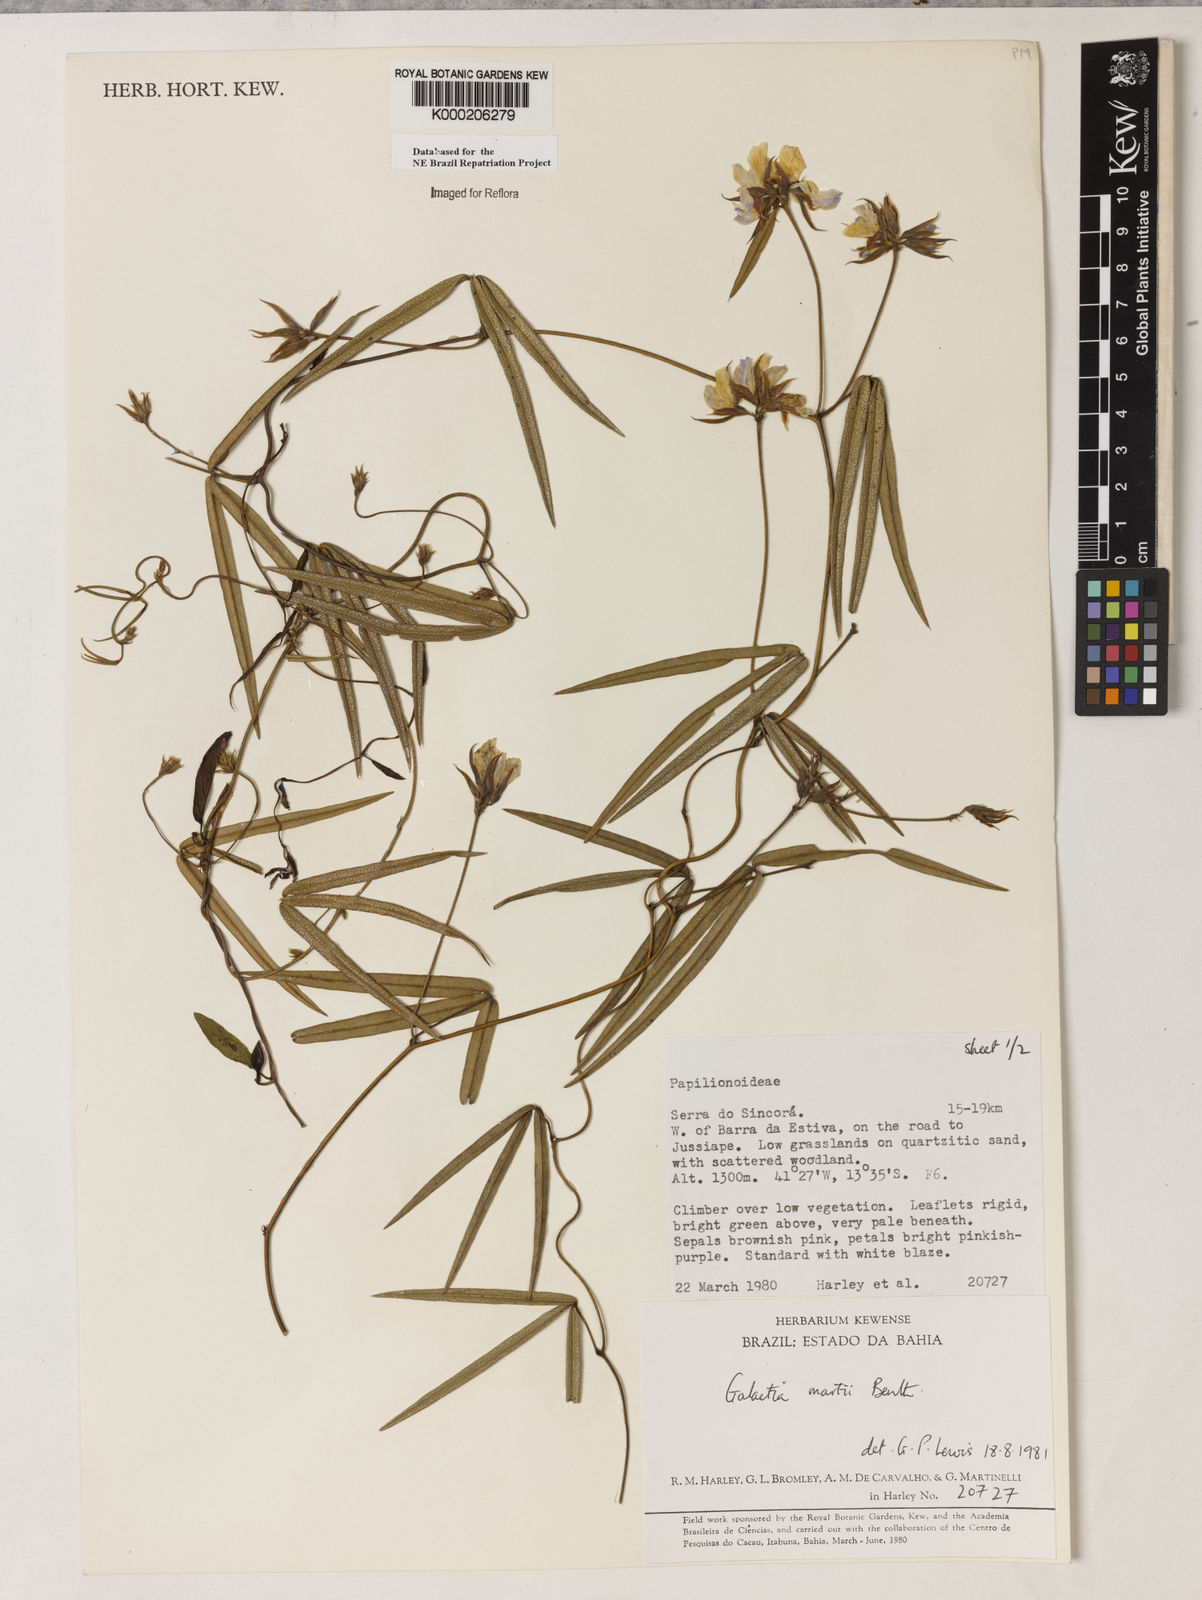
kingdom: Plantae
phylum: Tracheophyta
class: Magnoliopsida
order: Fabales
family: Fabaceae
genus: Betencourtia
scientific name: Betencourtia martii
